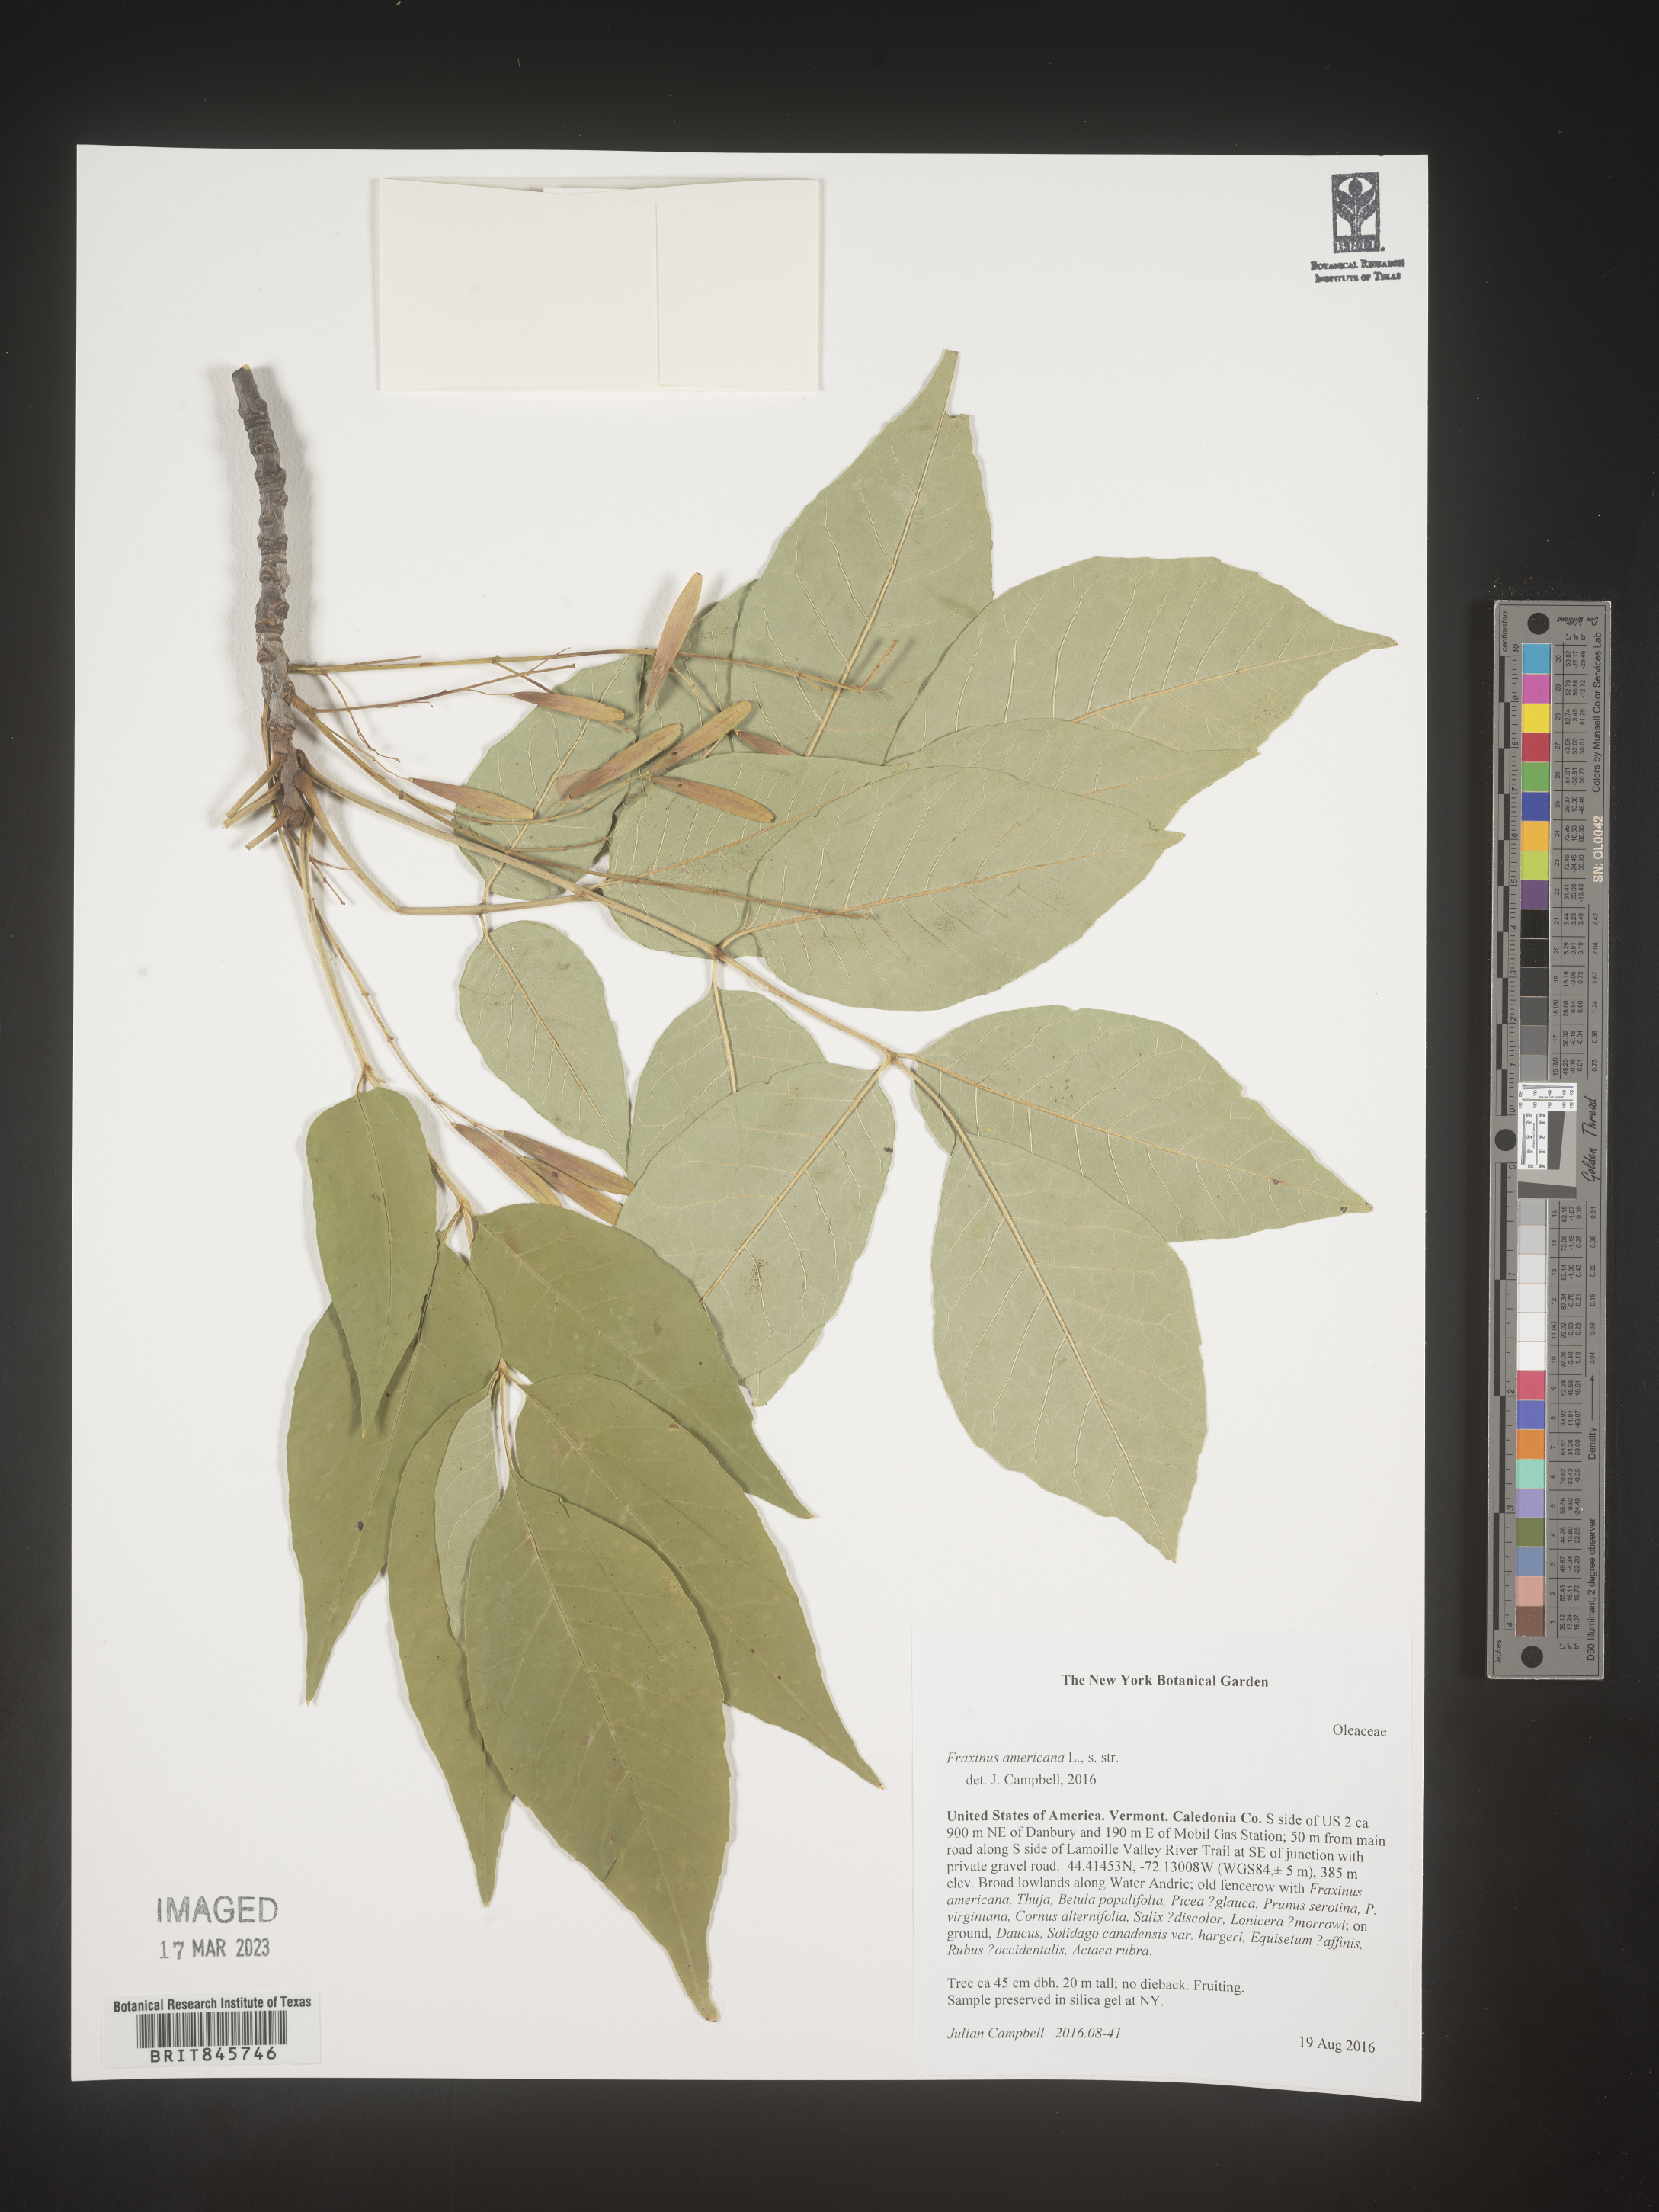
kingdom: Plantae
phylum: Tracheophyta
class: Magnoliopsida
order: Lamiales
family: Oleaceae
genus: Fraxinus
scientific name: Fraxinus americana
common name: White ash
